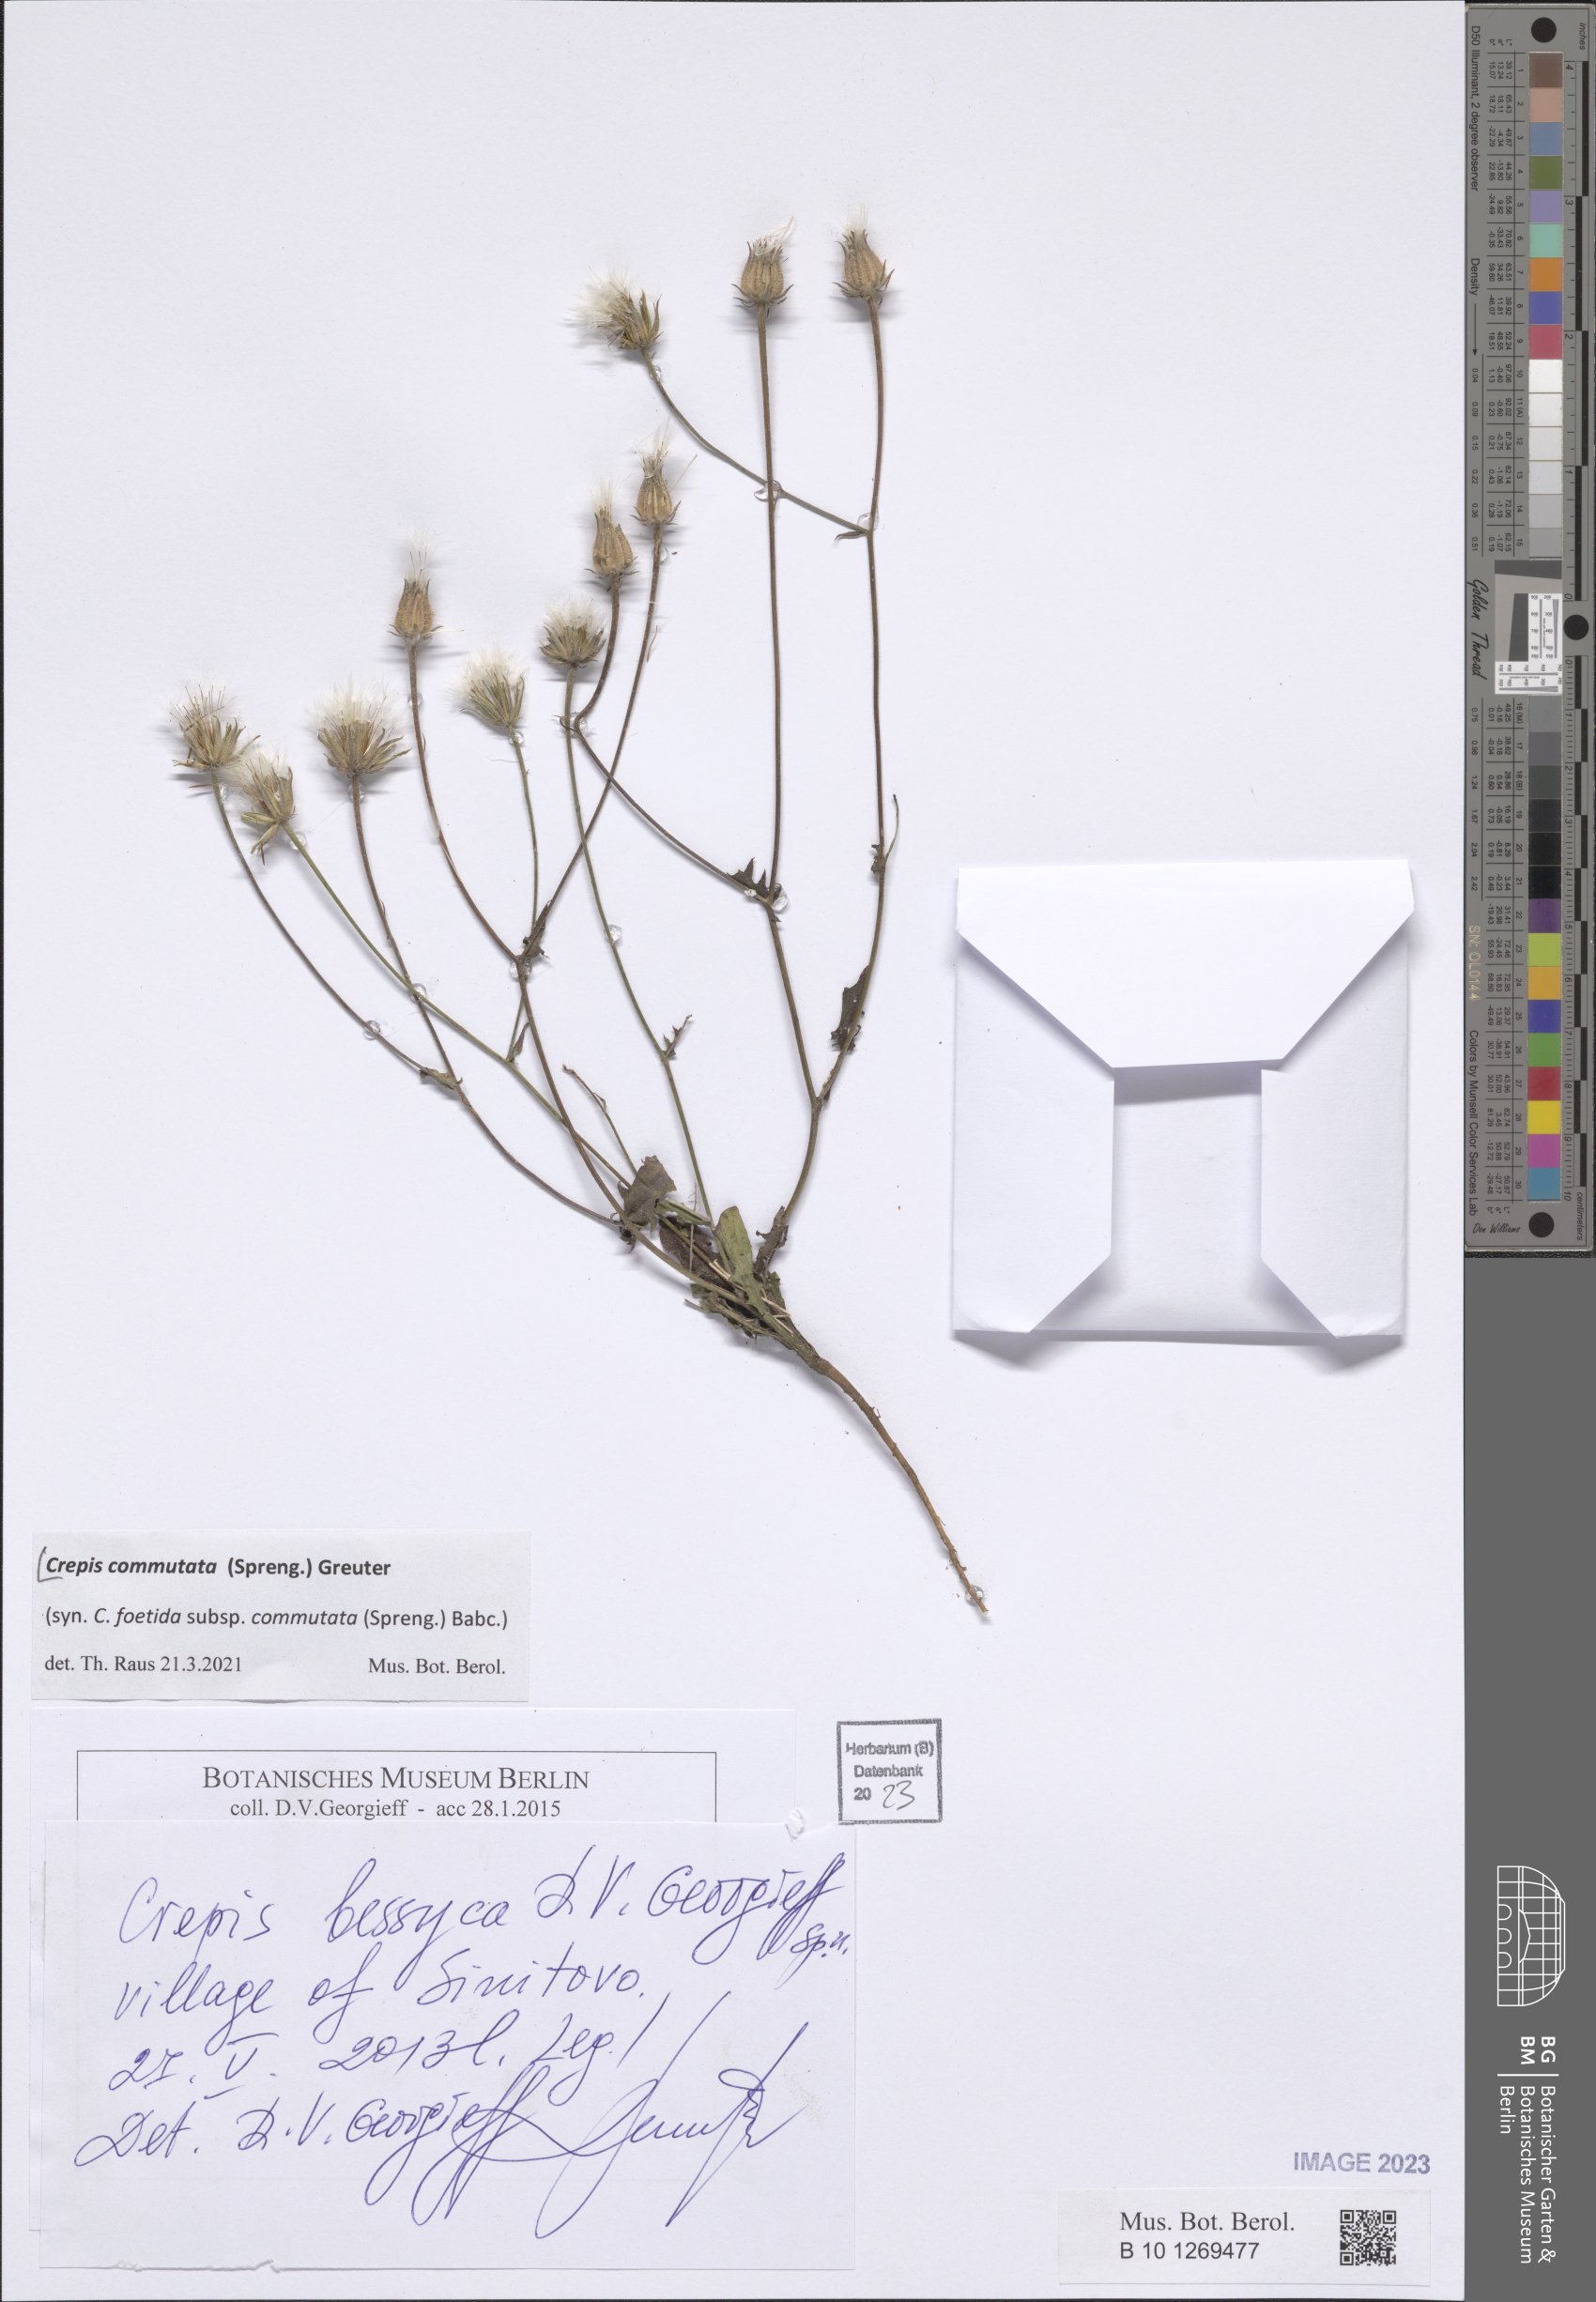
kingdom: Plantae
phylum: Tracheophyta
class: Magnoliopsida
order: Asterales
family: Asteraceae
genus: Crepis
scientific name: Crepis commutata
